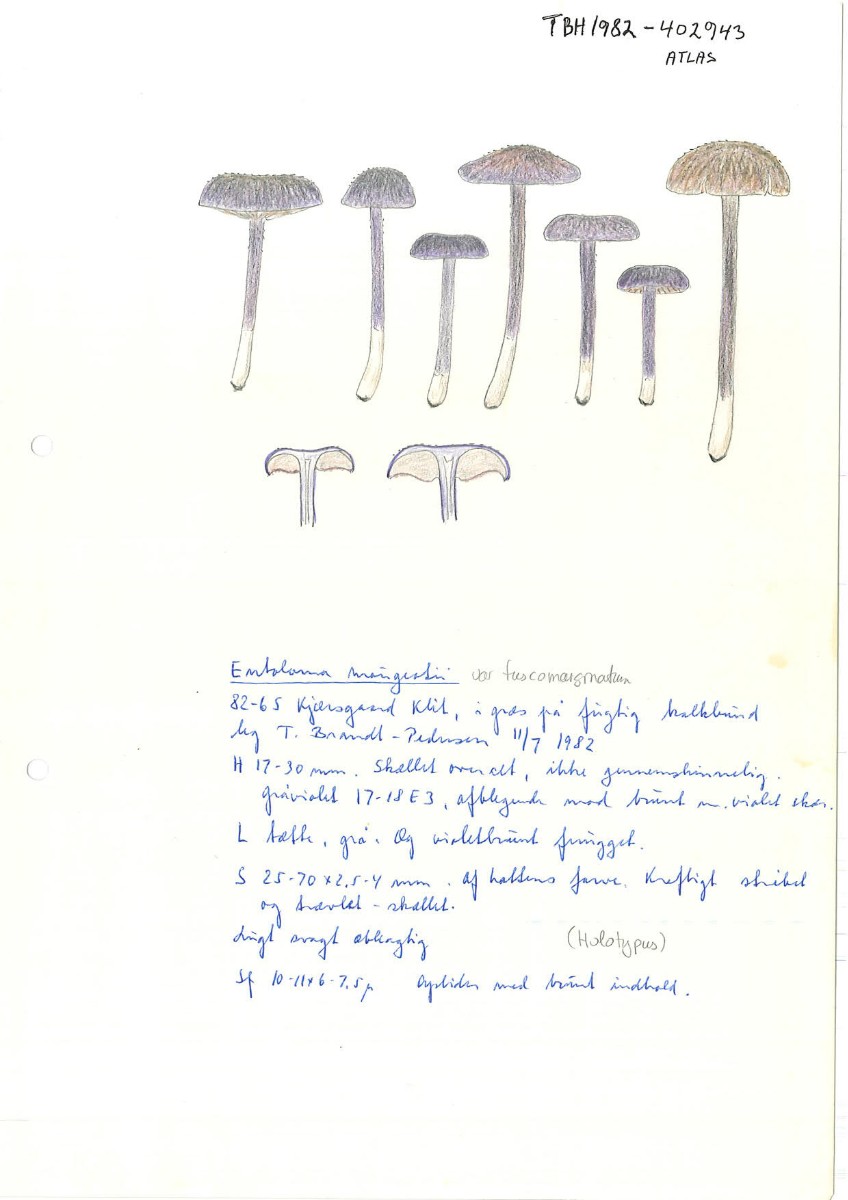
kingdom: Fungi
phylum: Basidiomycota
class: Agaricomycetes
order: Agaricales
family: Entolomataceae
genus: Entoloma
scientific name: Entoloma mougeotii
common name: violetgrå rødblad
